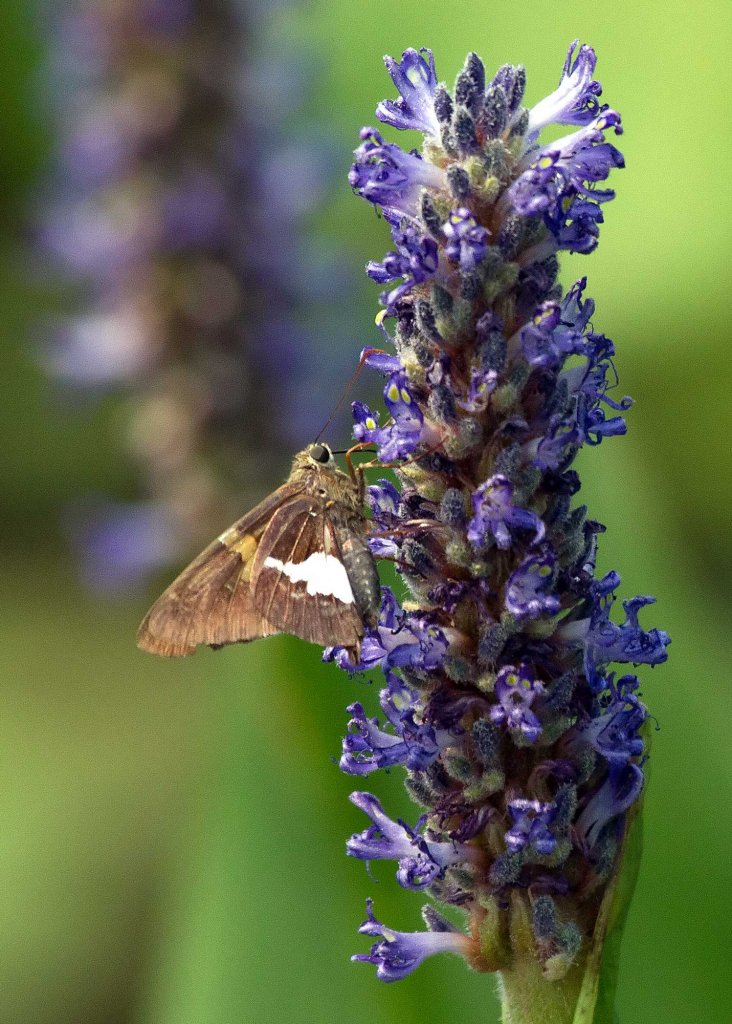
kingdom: Animalia
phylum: Arthropoda
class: Insecta
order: Lepidoptera
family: Hesperiidae
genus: Epargyreus
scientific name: Epargyreus clarus
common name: Silver-spotted Skipper
